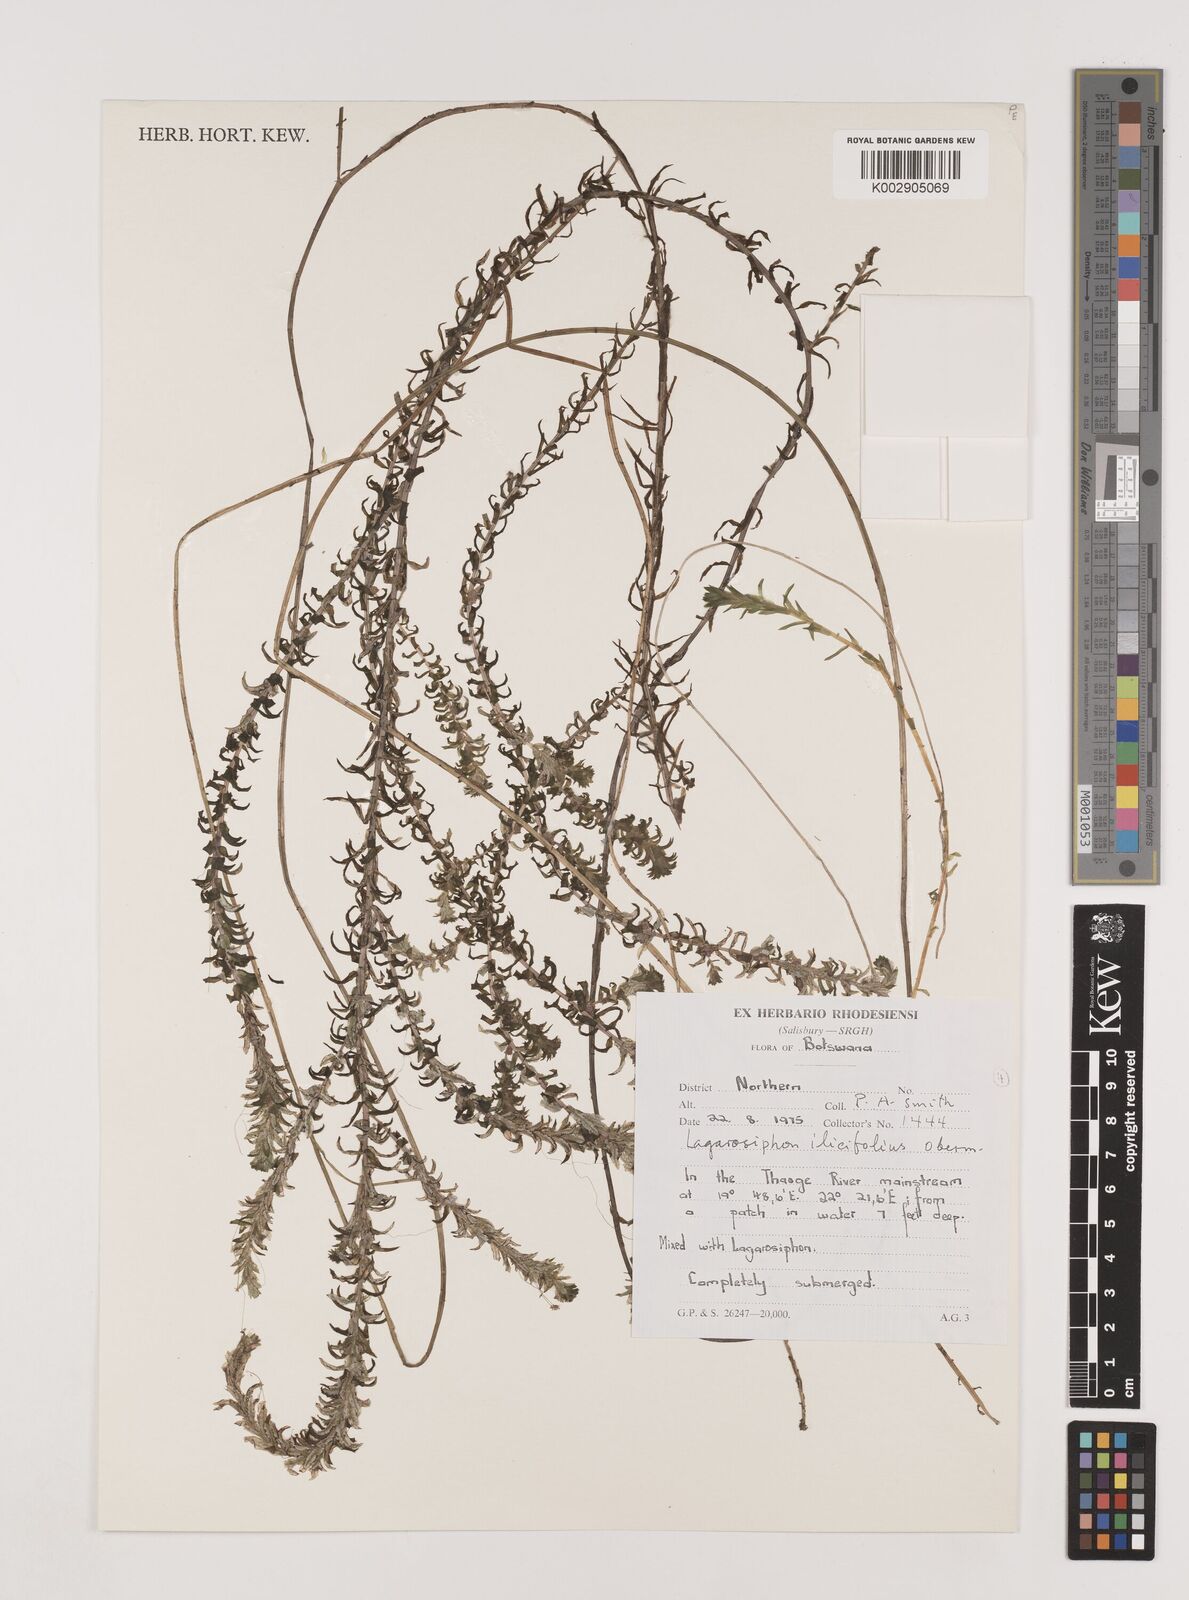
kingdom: Plantae
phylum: Tracheophyta
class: Liliopsida
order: Alismatales
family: Hydrocharitaceae
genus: Lagarosiphon
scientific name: Lagarosiphon ilicifolius
